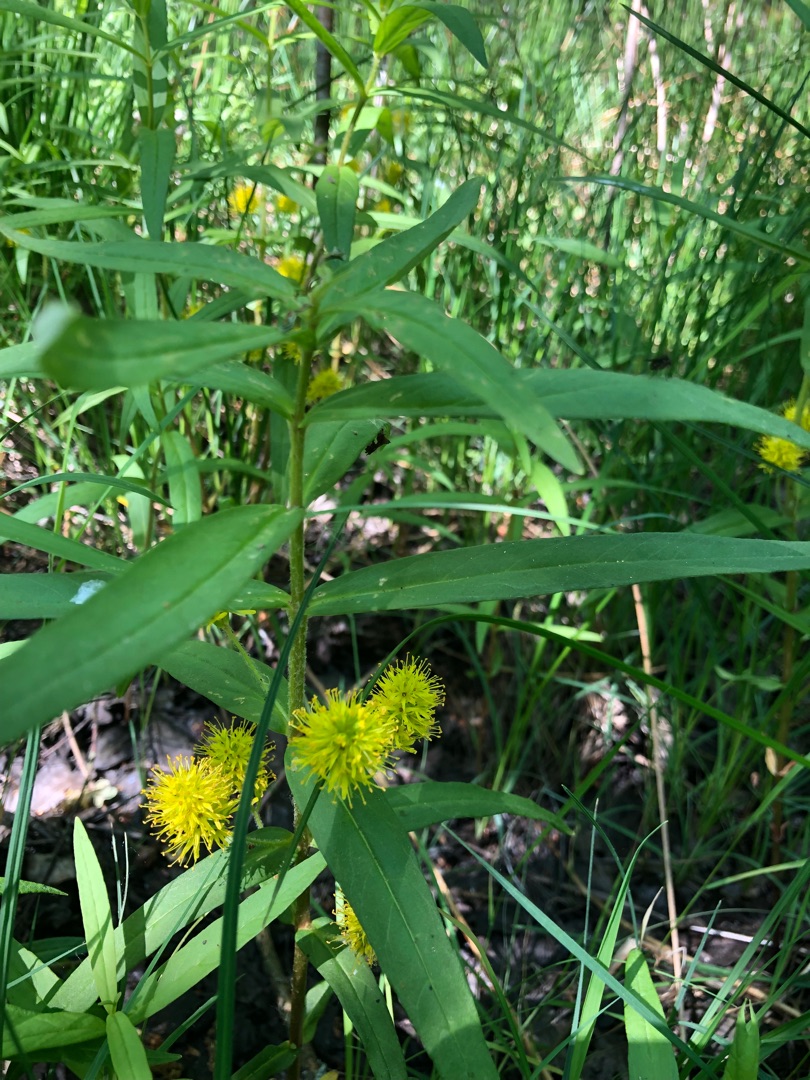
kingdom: Plantae
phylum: Tracheophyta
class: Magnoliopsida
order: Ericales
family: Primulaceae
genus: Lysimachia
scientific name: Lysimachia thyrsiflora
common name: Dusk-fredløs
